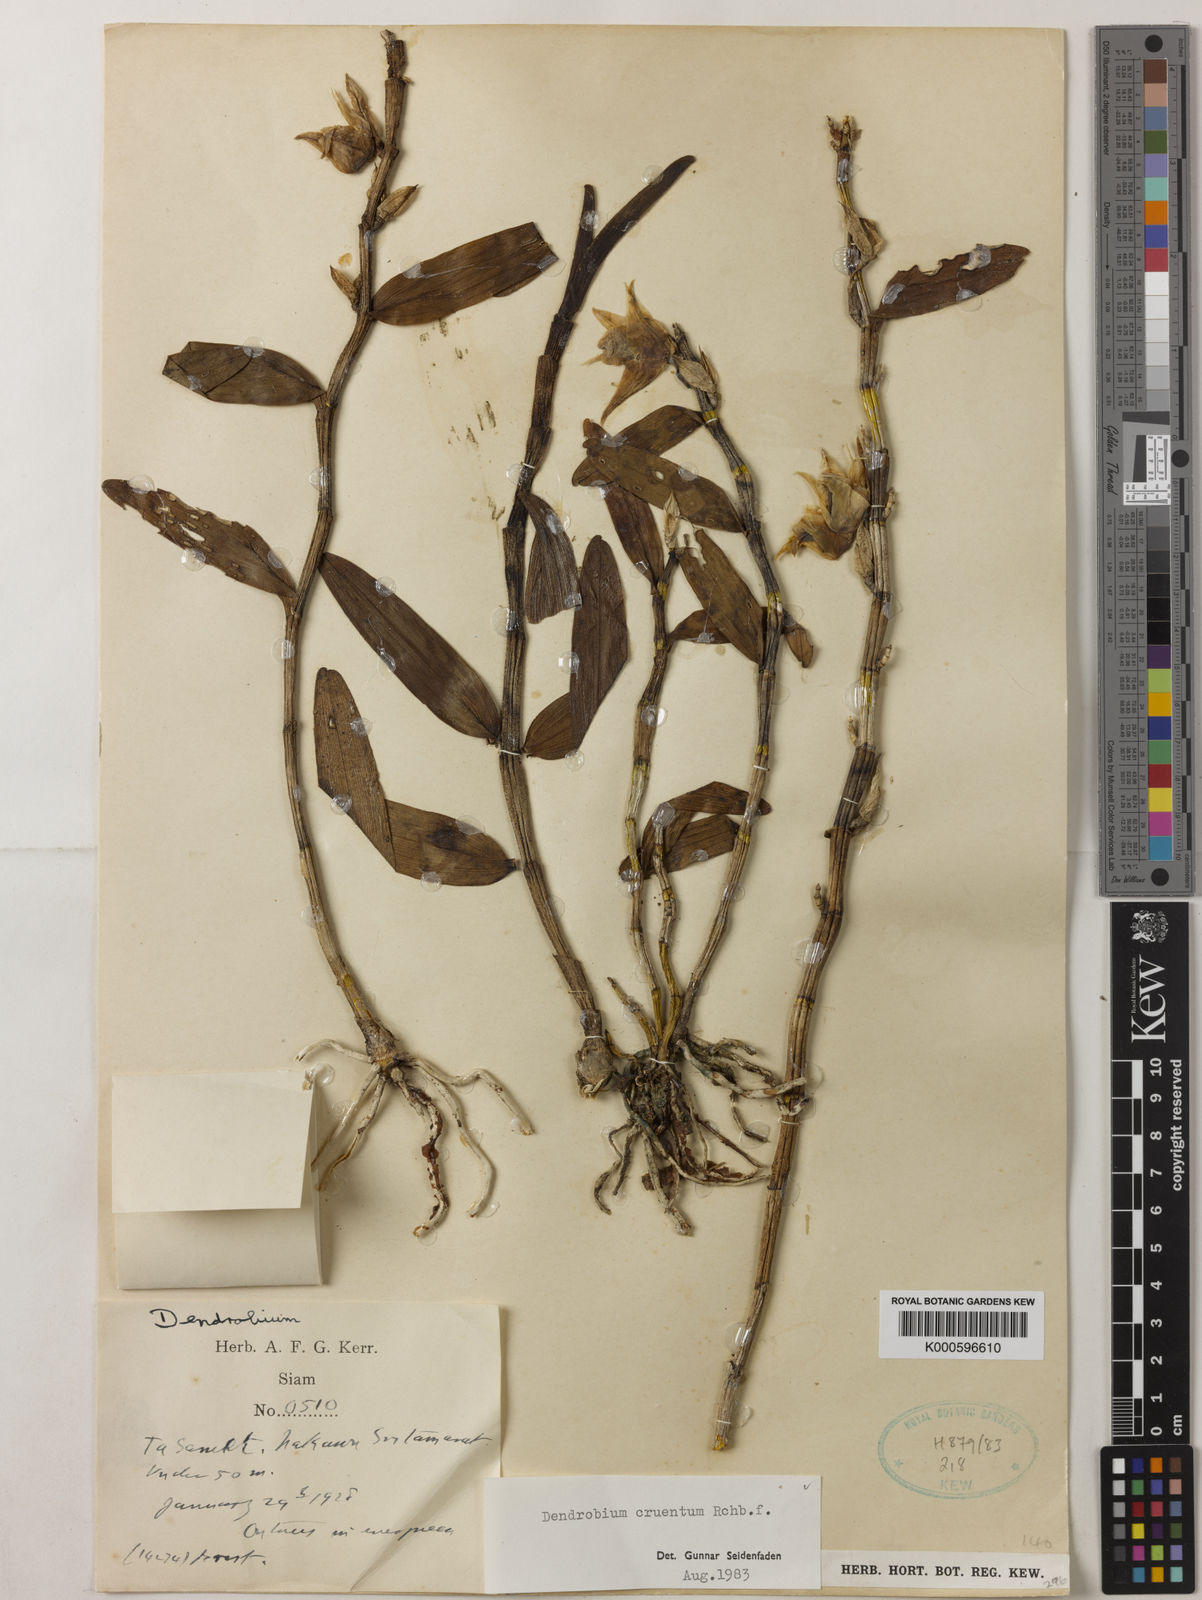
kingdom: Plantae
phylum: Tracheophyta
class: Liliopsida
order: Asparagales
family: Orchidaceae
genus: Dendrobium
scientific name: Dendrobium cruentum
